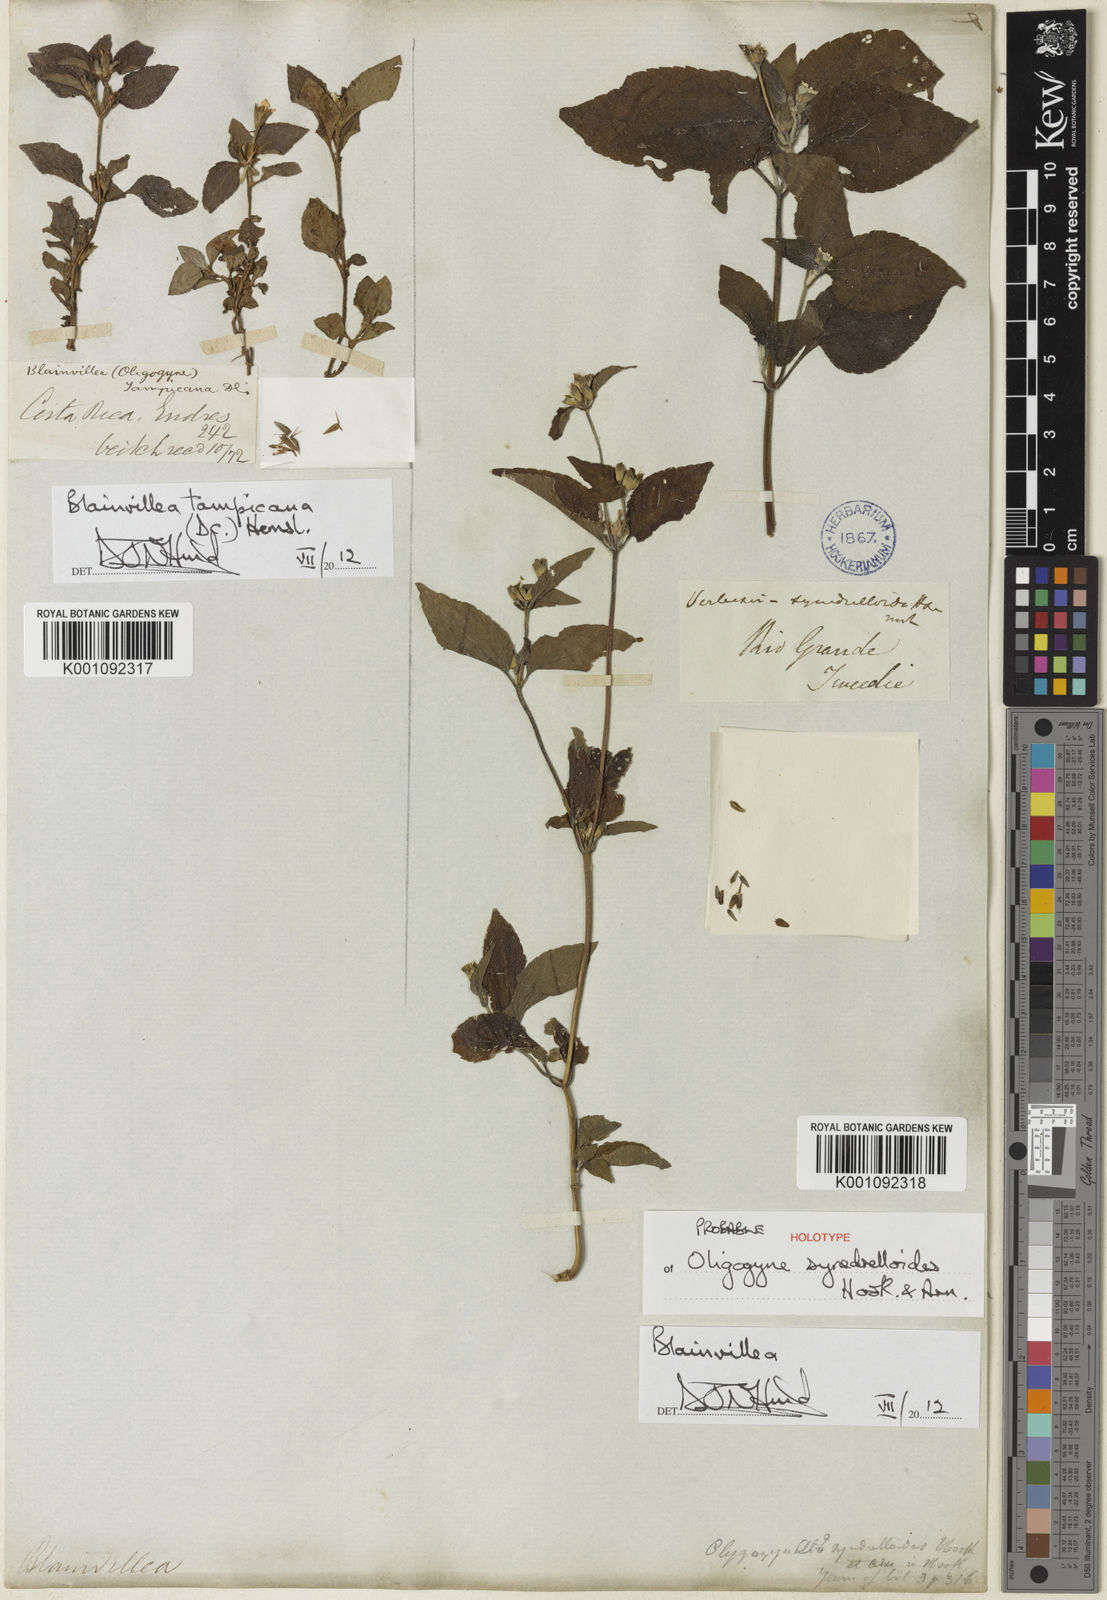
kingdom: Plantae
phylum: Tracheophyta
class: Magnoliopsida
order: Asterales
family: Asteraceae
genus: Calyptocarpus
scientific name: Calyptocarpus brasiliensis
